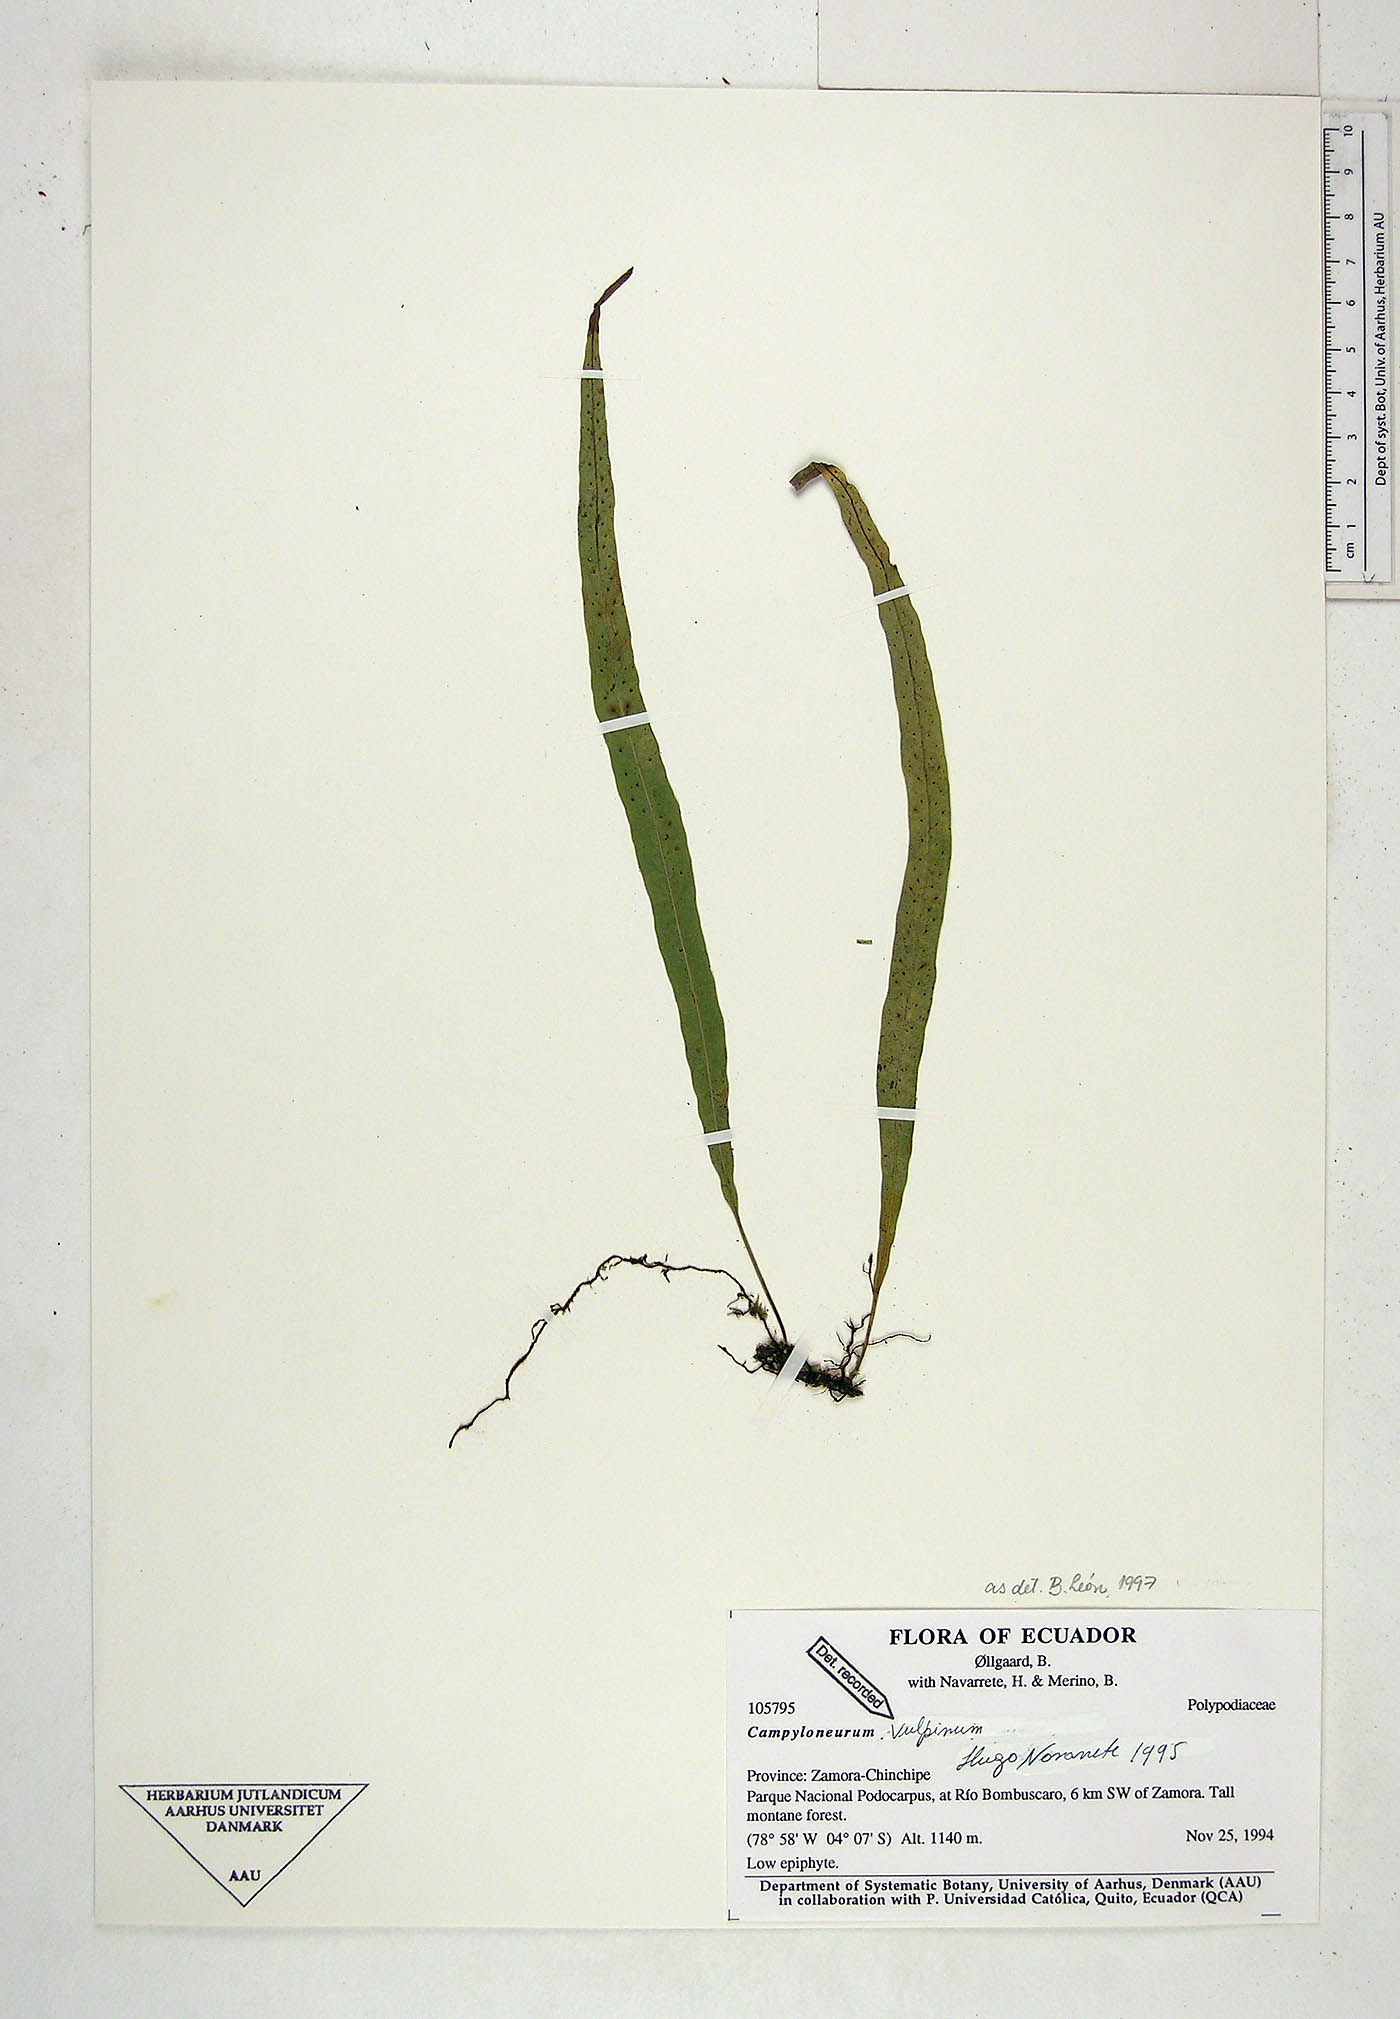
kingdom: Plantae
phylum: Tracheophyta
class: Polypodiopsida
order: Polypodiales
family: Polypodiaceae
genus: Campyloneurum
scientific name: Campyloneurum vulpinum
